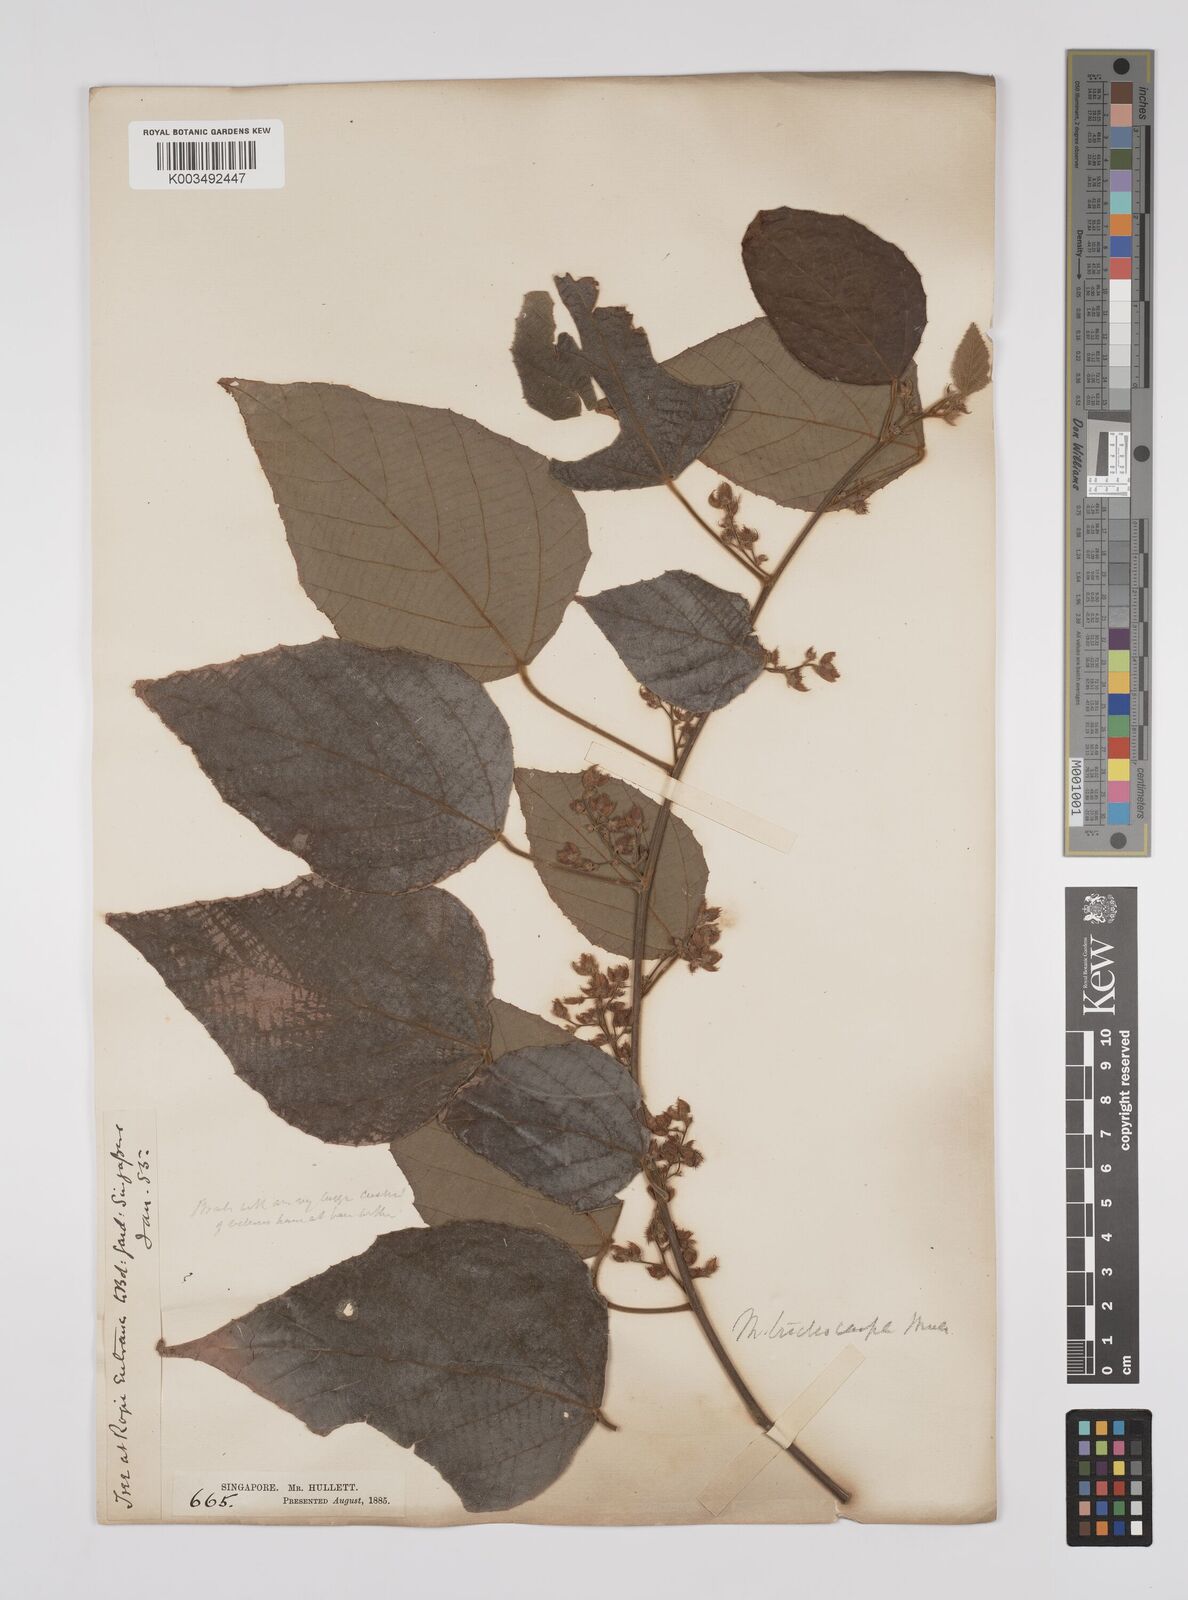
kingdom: Plantae
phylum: Tracheophyta
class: Magnoliopsida
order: Malpighiales
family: Euphorbiaceae
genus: Macaranga
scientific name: Macaranga trichocarpa
